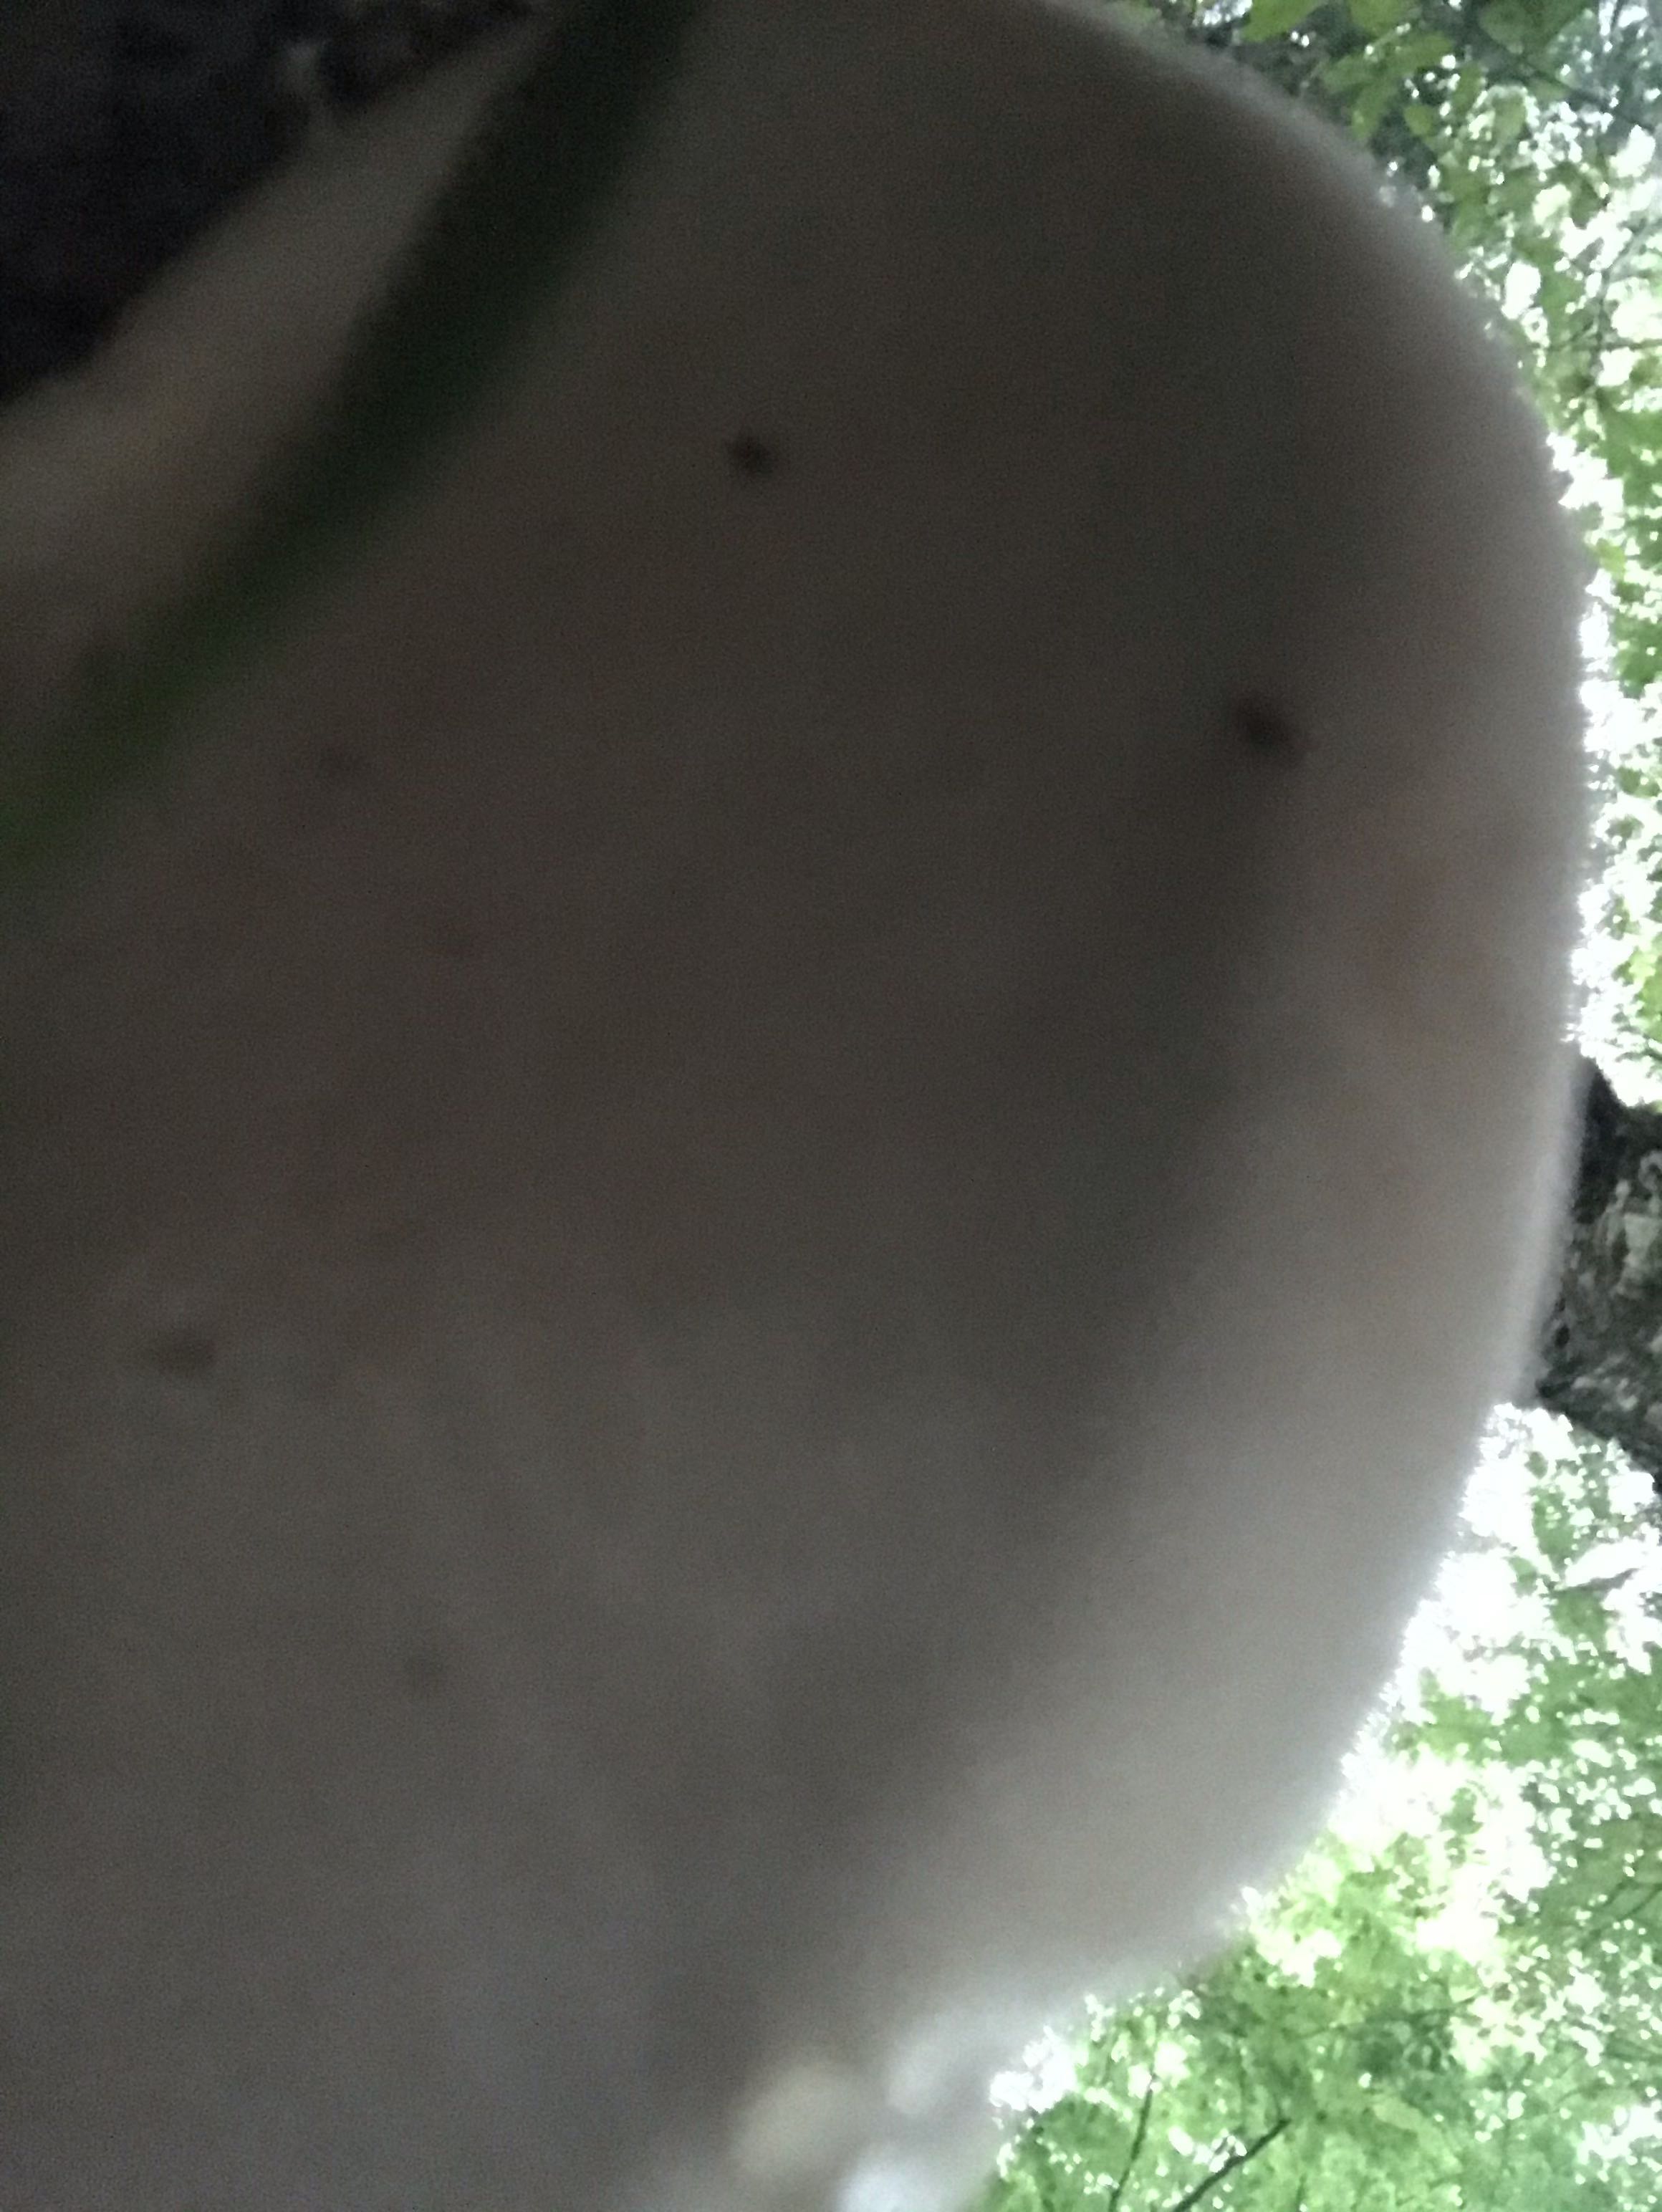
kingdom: Fungi
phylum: Basidiomycota
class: Agaricomycetes
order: Polyporales
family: Fomitopsidaceae
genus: Fomitopsis
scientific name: Fomitopsis betulina
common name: birkeporesvamp
